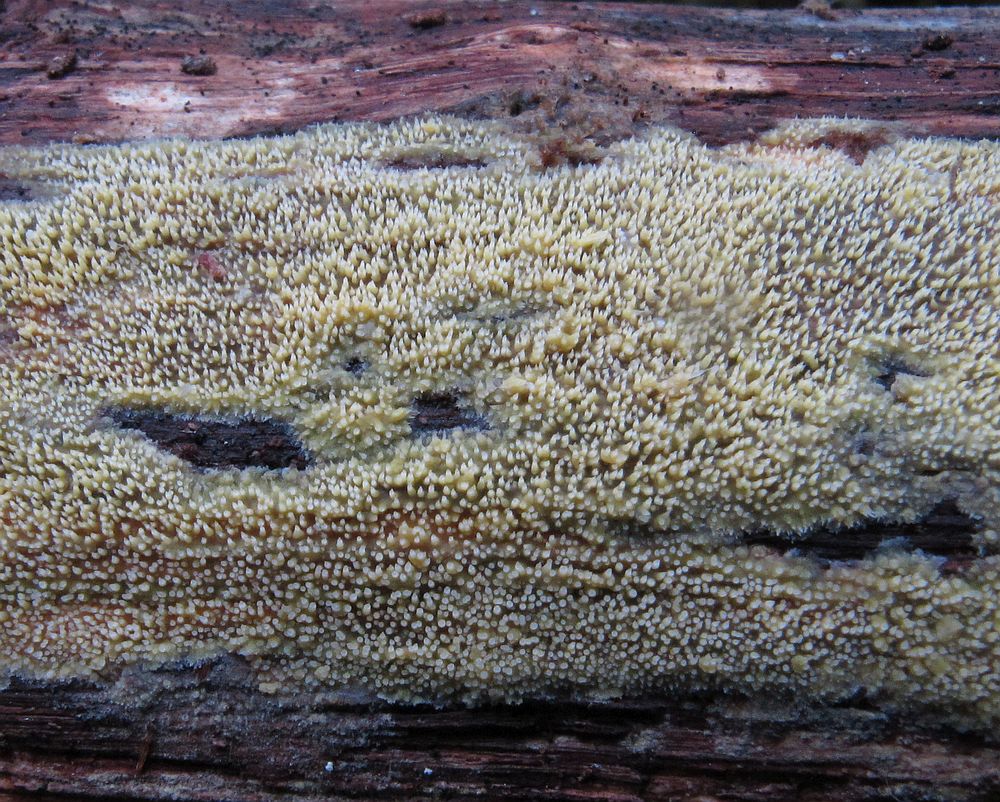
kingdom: Fungi
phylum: Basidiomycota
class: Agaricomycetes
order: Polyporales
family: Meruliaceae
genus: Mycoacia
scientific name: Mycoacia uda
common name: citrongul vokspig
